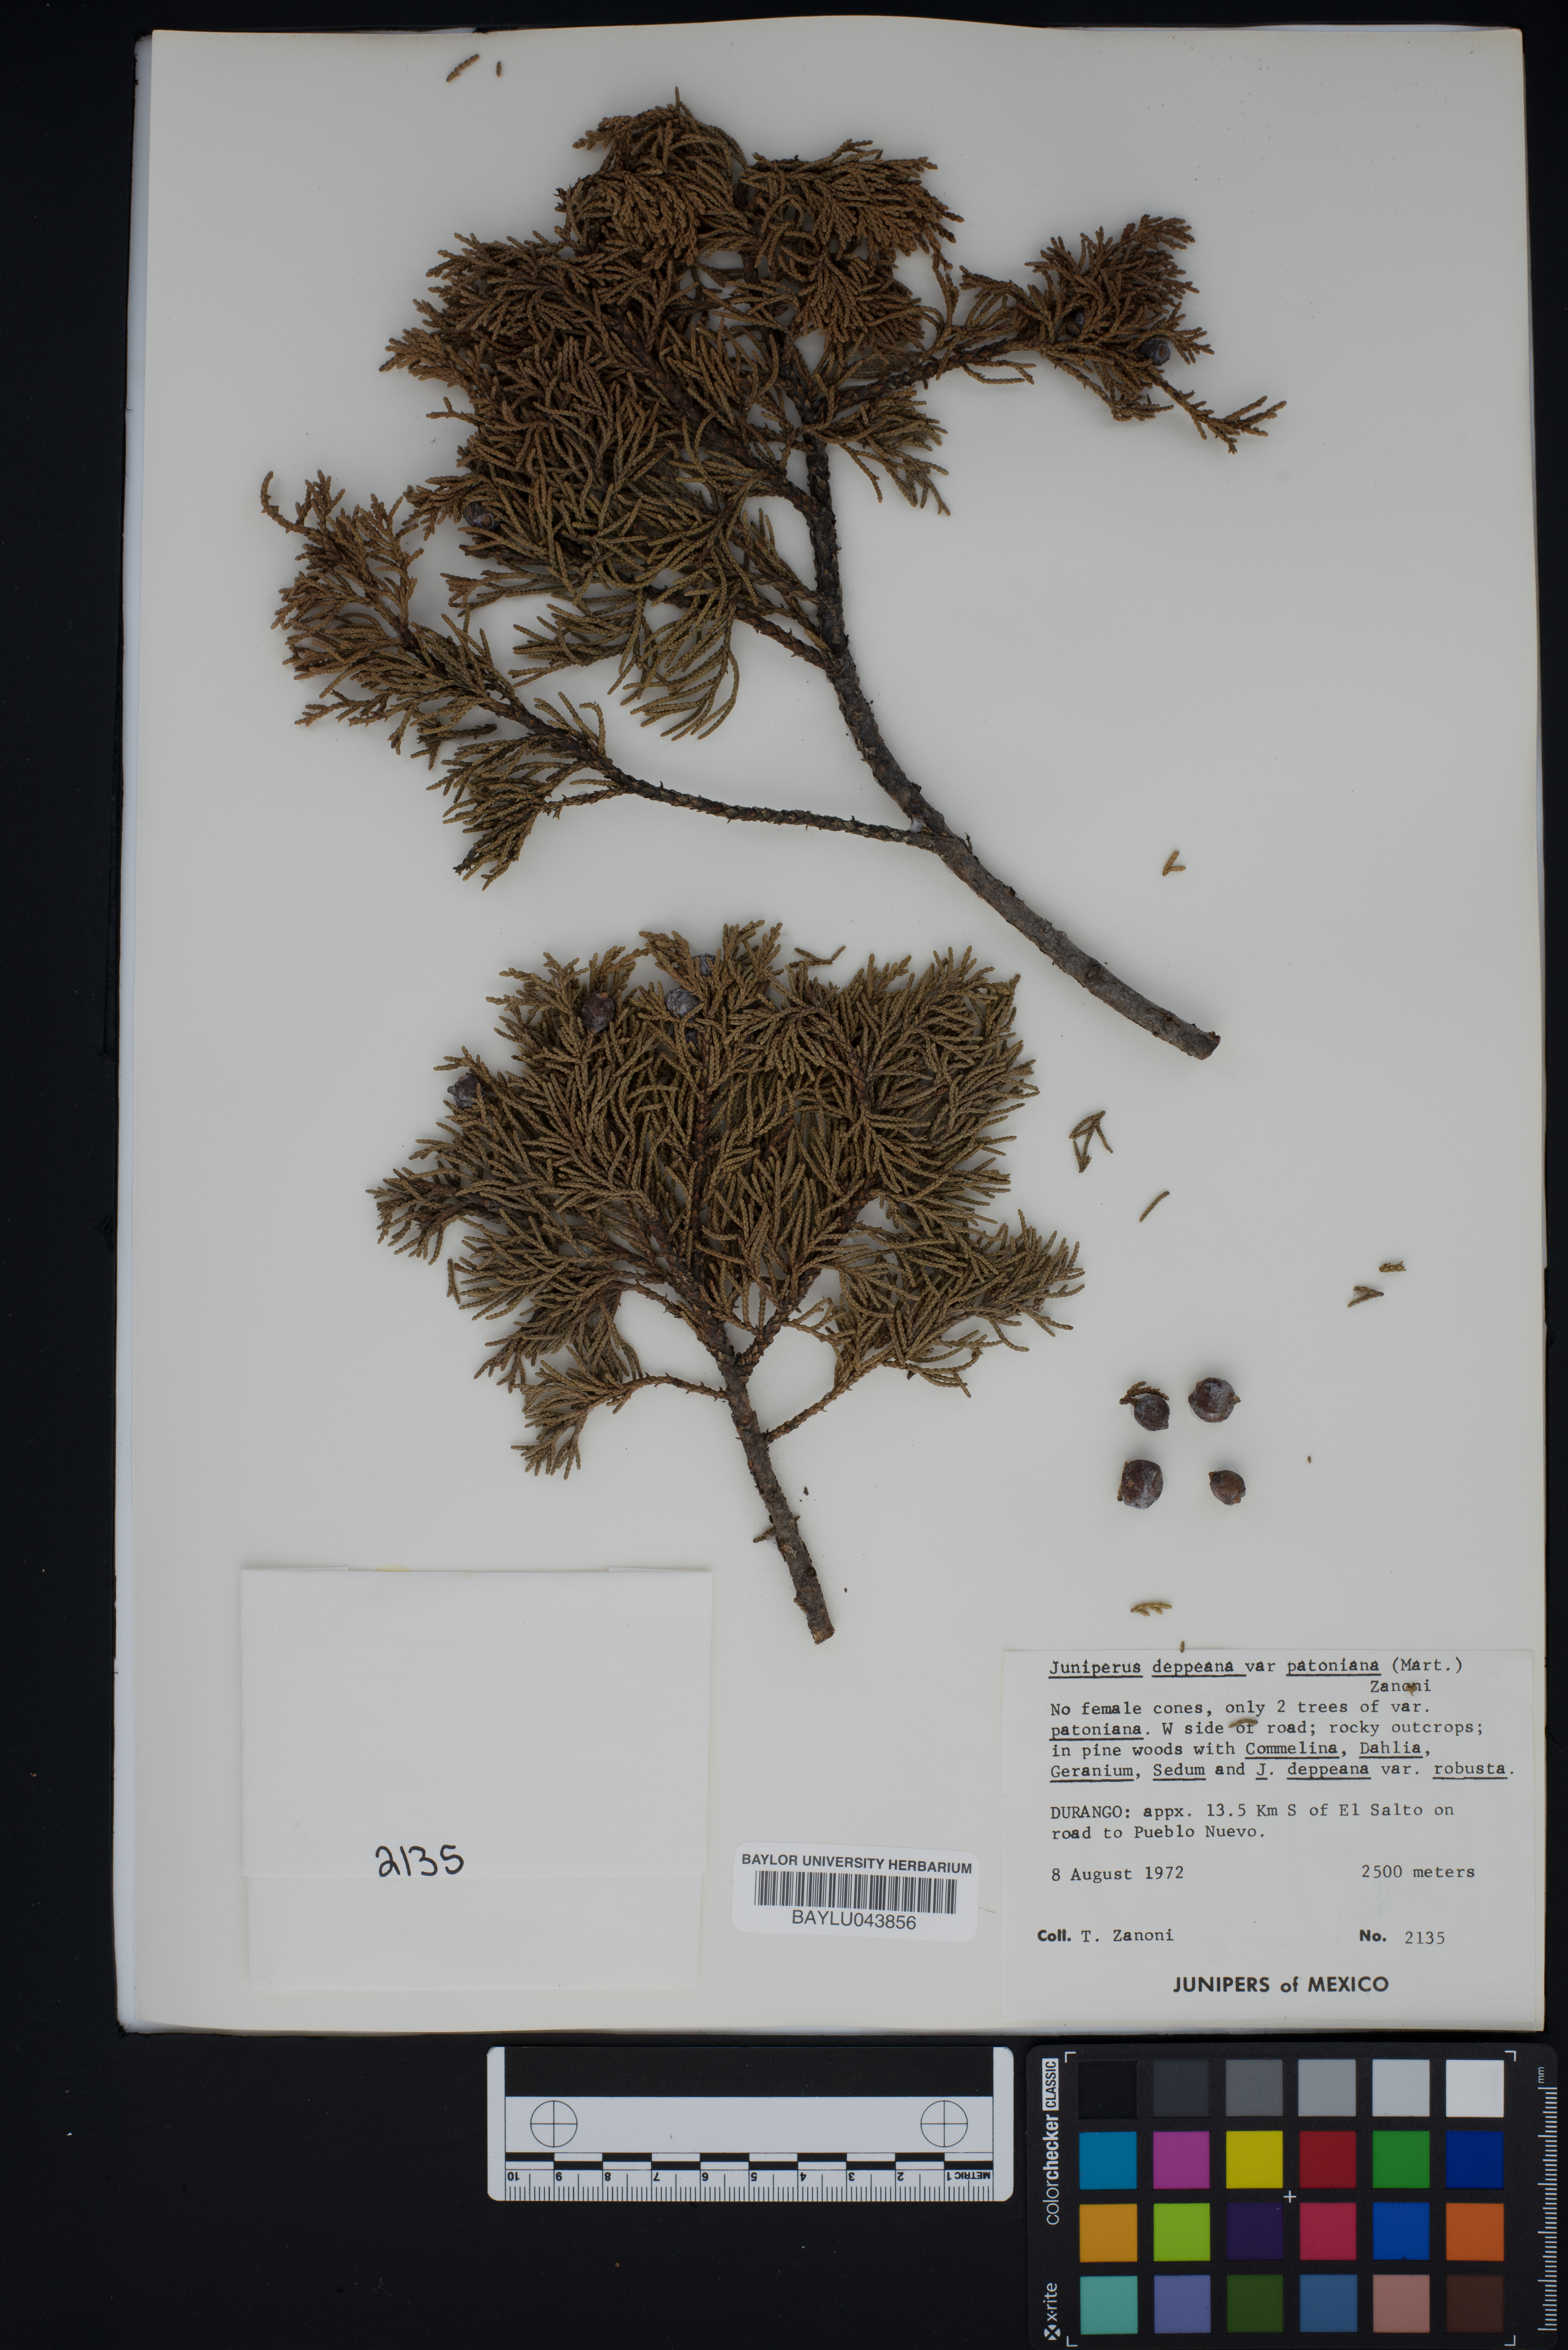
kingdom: Plantae
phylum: Tracheophyta
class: Pinopsida
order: Pinales
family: Cupressaceae
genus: Juniperus
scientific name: Juniperus deppeana
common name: Alligator juniper
